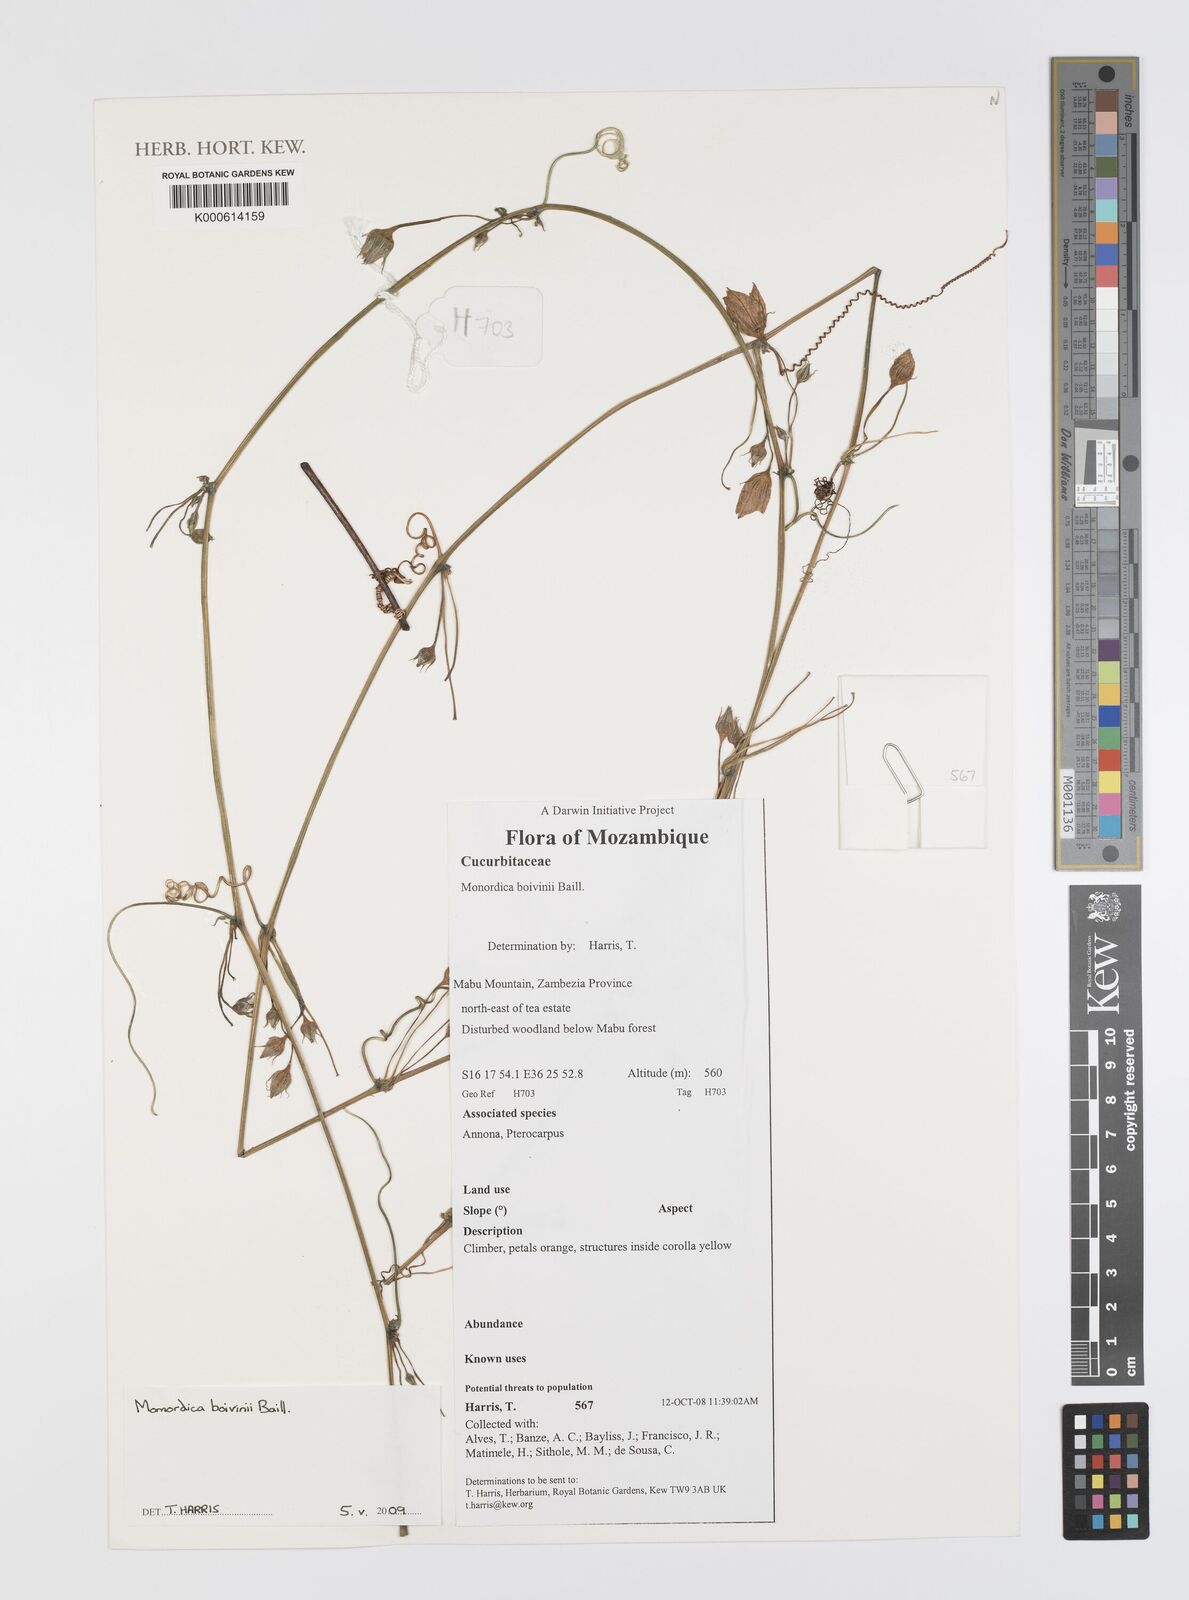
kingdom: Plantae
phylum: Tracheophyta
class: Magnoliopsida
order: Cucurbitales
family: Cucurbitaceae
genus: Momordica
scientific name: Momordica boivinii
